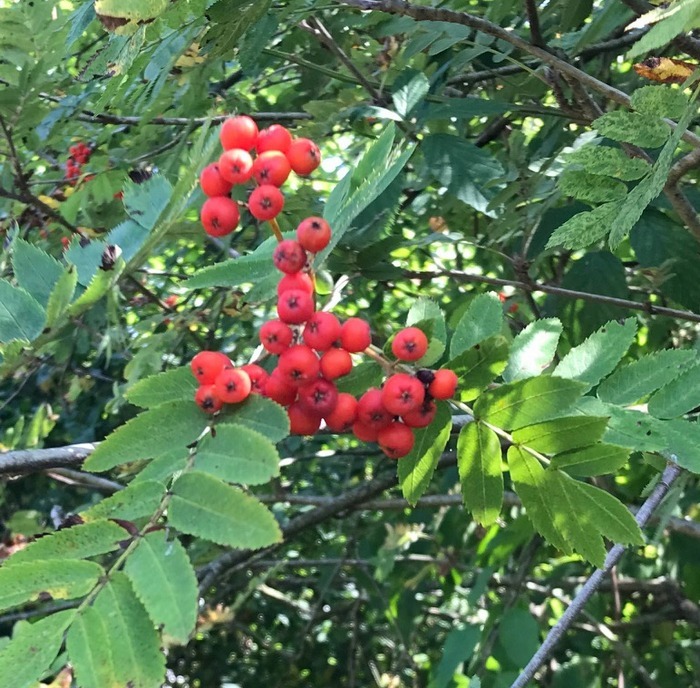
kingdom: Plantae
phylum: Tracheophyta
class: Magnoliopsida
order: Rosales
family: Rosaceae
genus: Sorbus
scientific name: Sorbus aucuparia
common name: Almindelig røn
